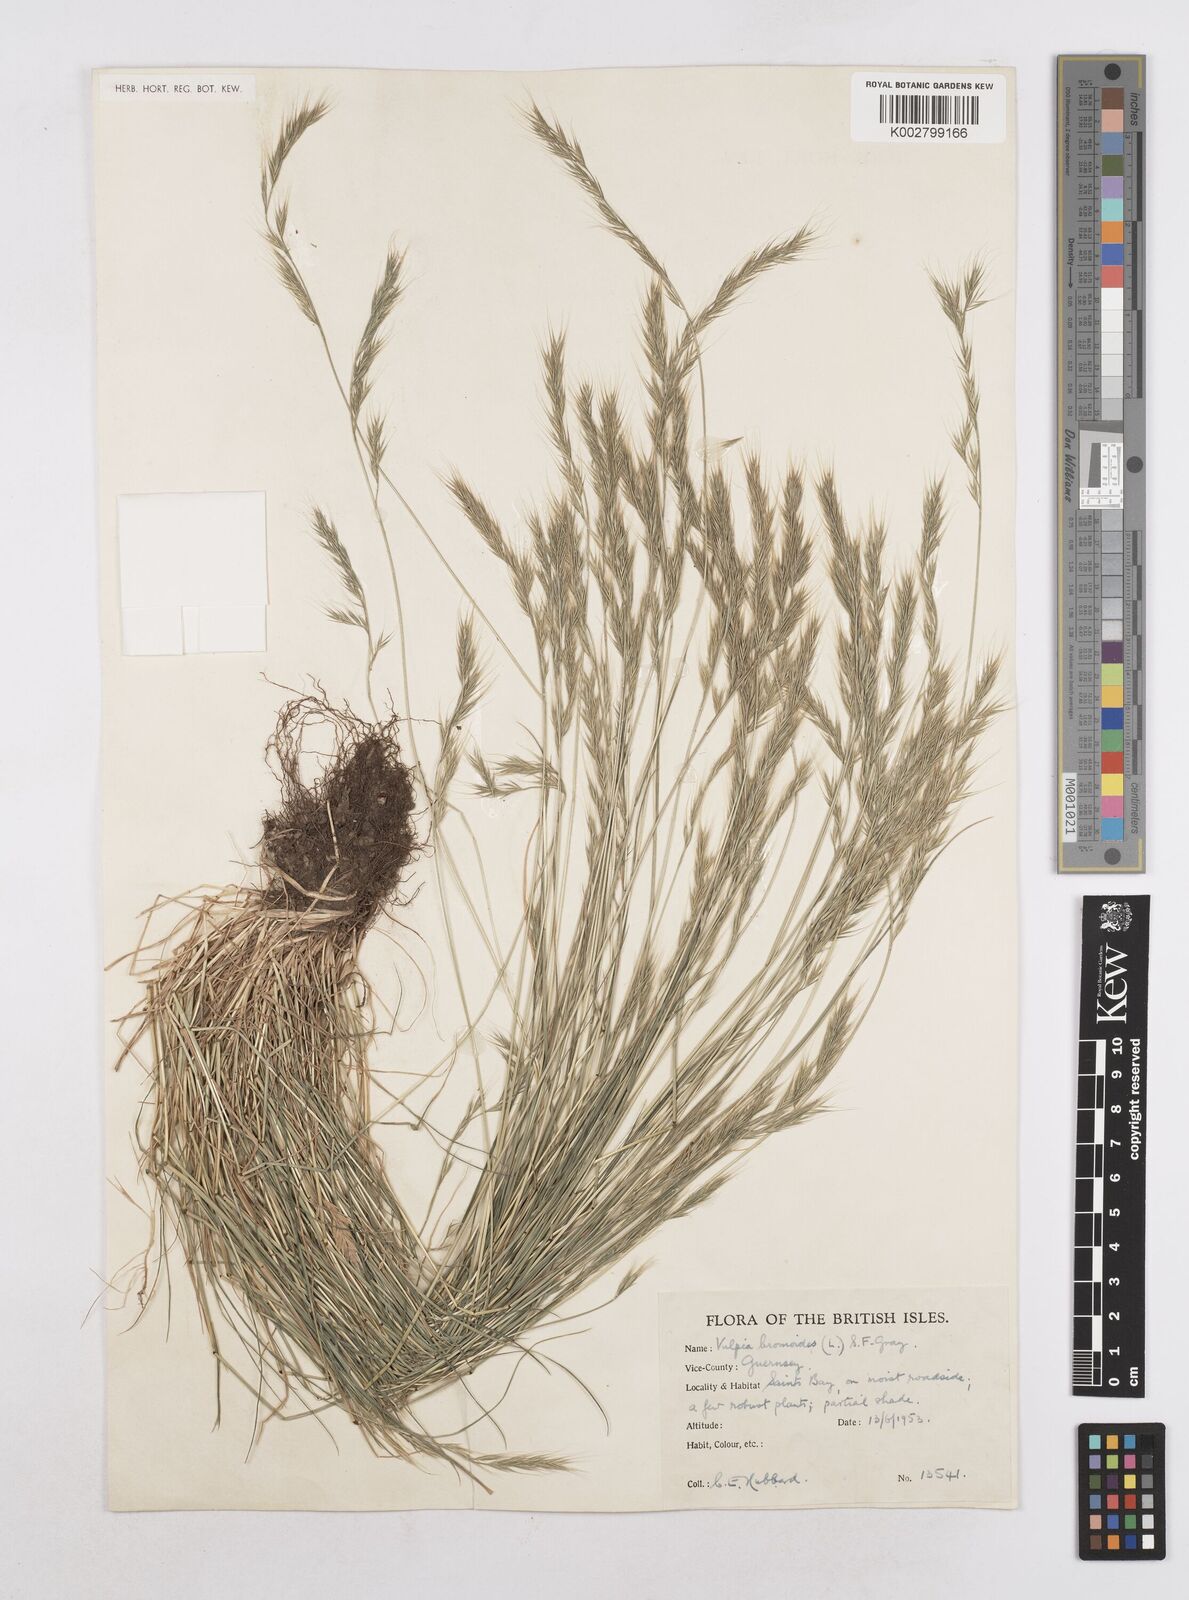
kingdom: Plantae
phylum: Tracheophyta
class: Liliopsida
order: Poales
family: Poaceae
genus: Festuca
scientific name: Festuca bromoides
